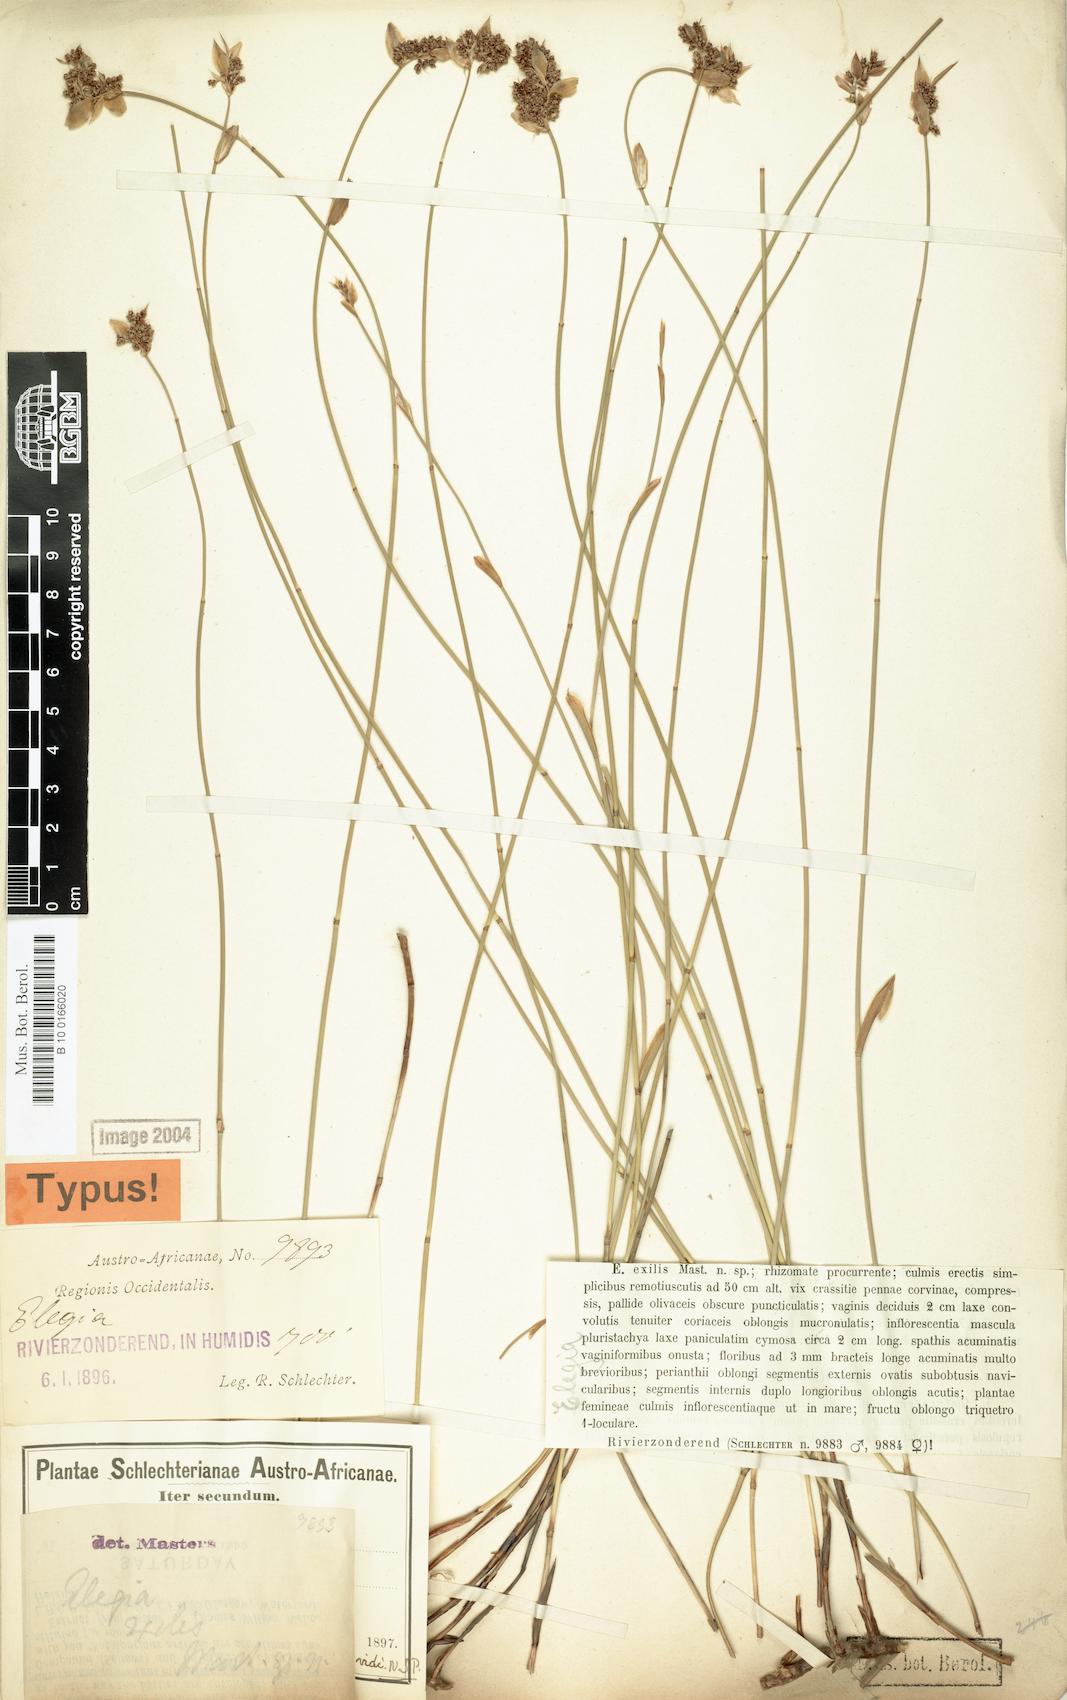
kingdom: Plantae
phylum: Tracheophyta
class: Liliopsida
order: Poales
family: Restionaceae
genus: Elegia
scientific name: Elegia coleura
